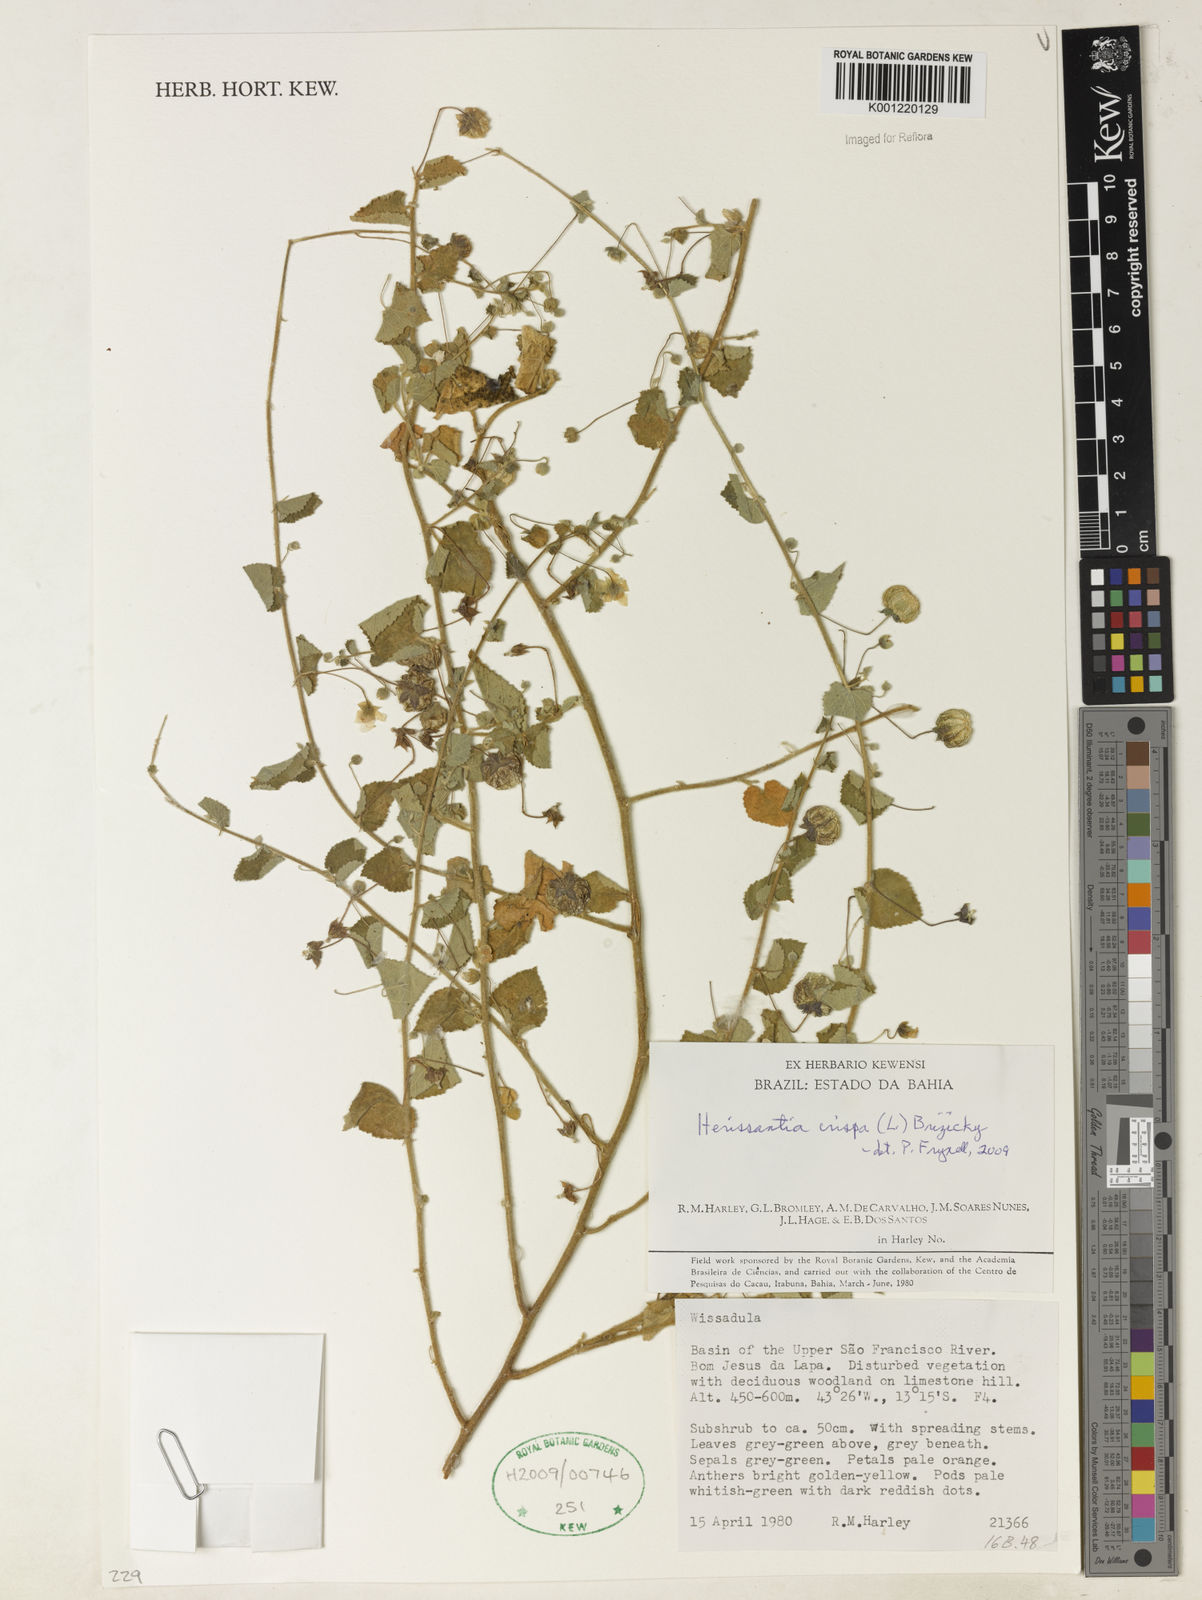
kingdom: Plantae
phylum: Tracheophyta
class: Magnoliopsida
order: Malvales
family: Malvaceae
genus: Herissantia
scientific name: Herissantia crispa
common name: Bladdermallow
